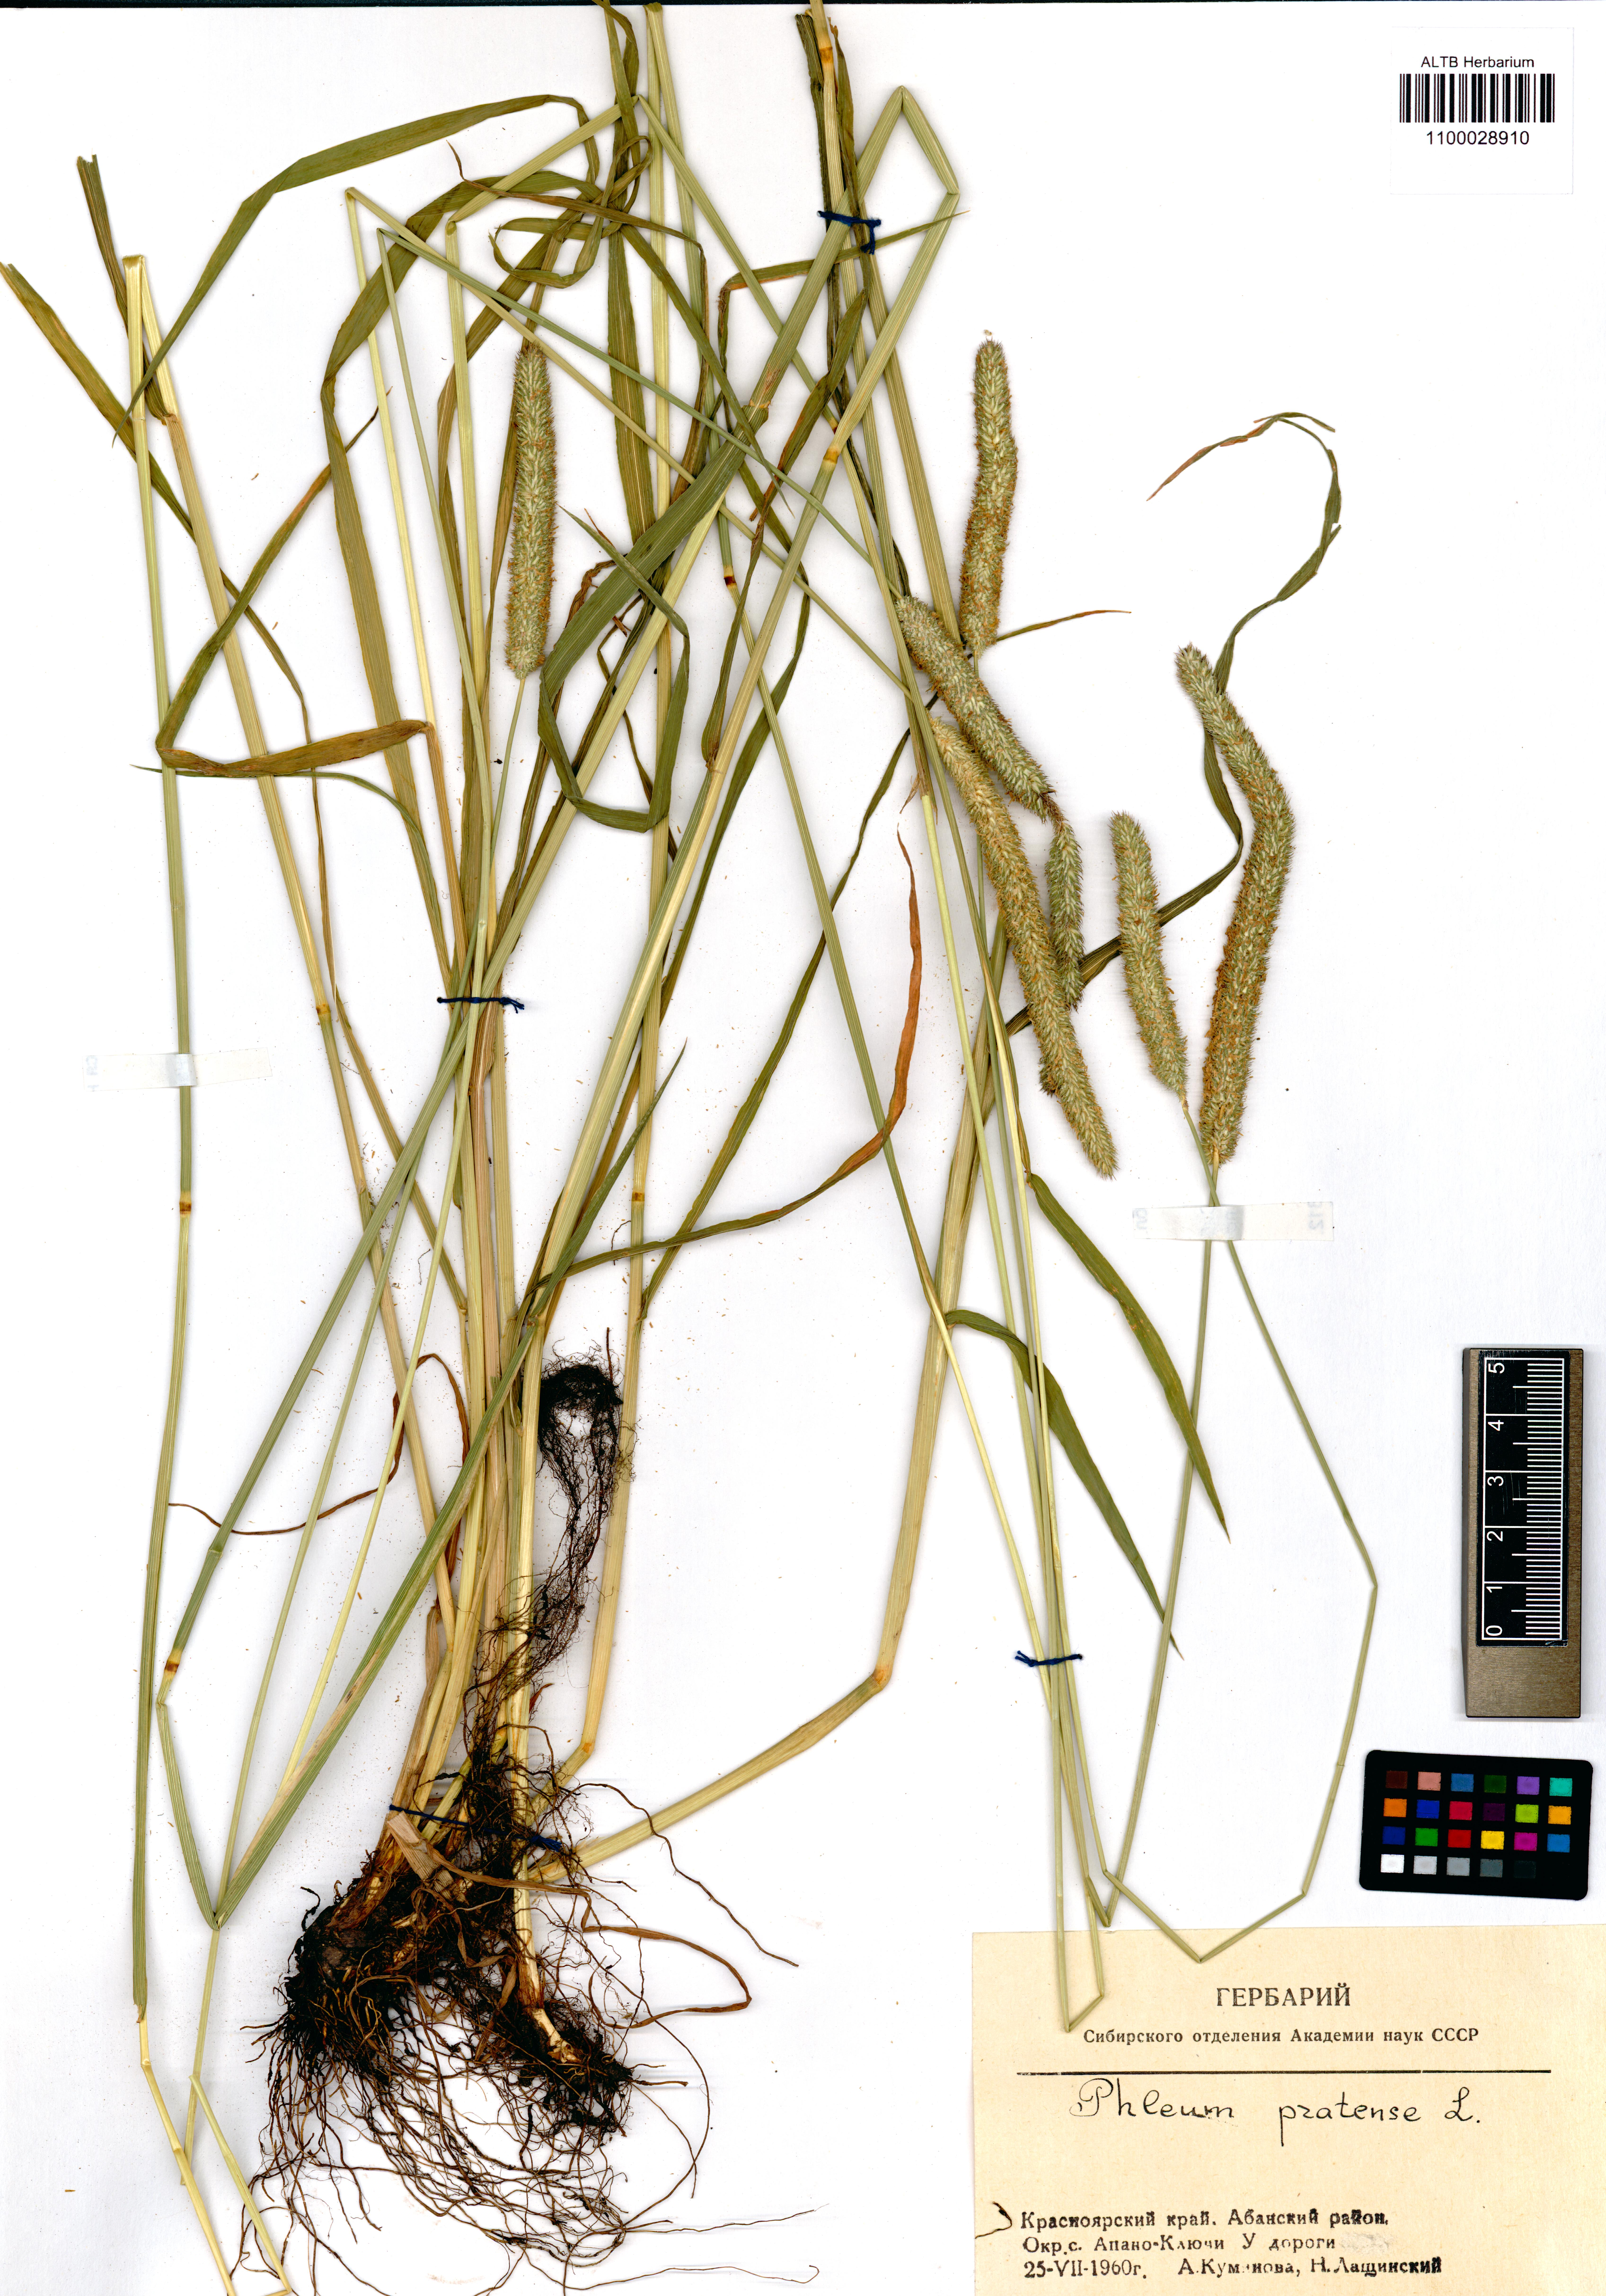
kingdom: Plantae
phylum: Tracheophyta
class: Liliopsida
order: Poales
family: Poaceae
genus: Phleum
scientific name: Phleum pratense
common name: Timothy grass
